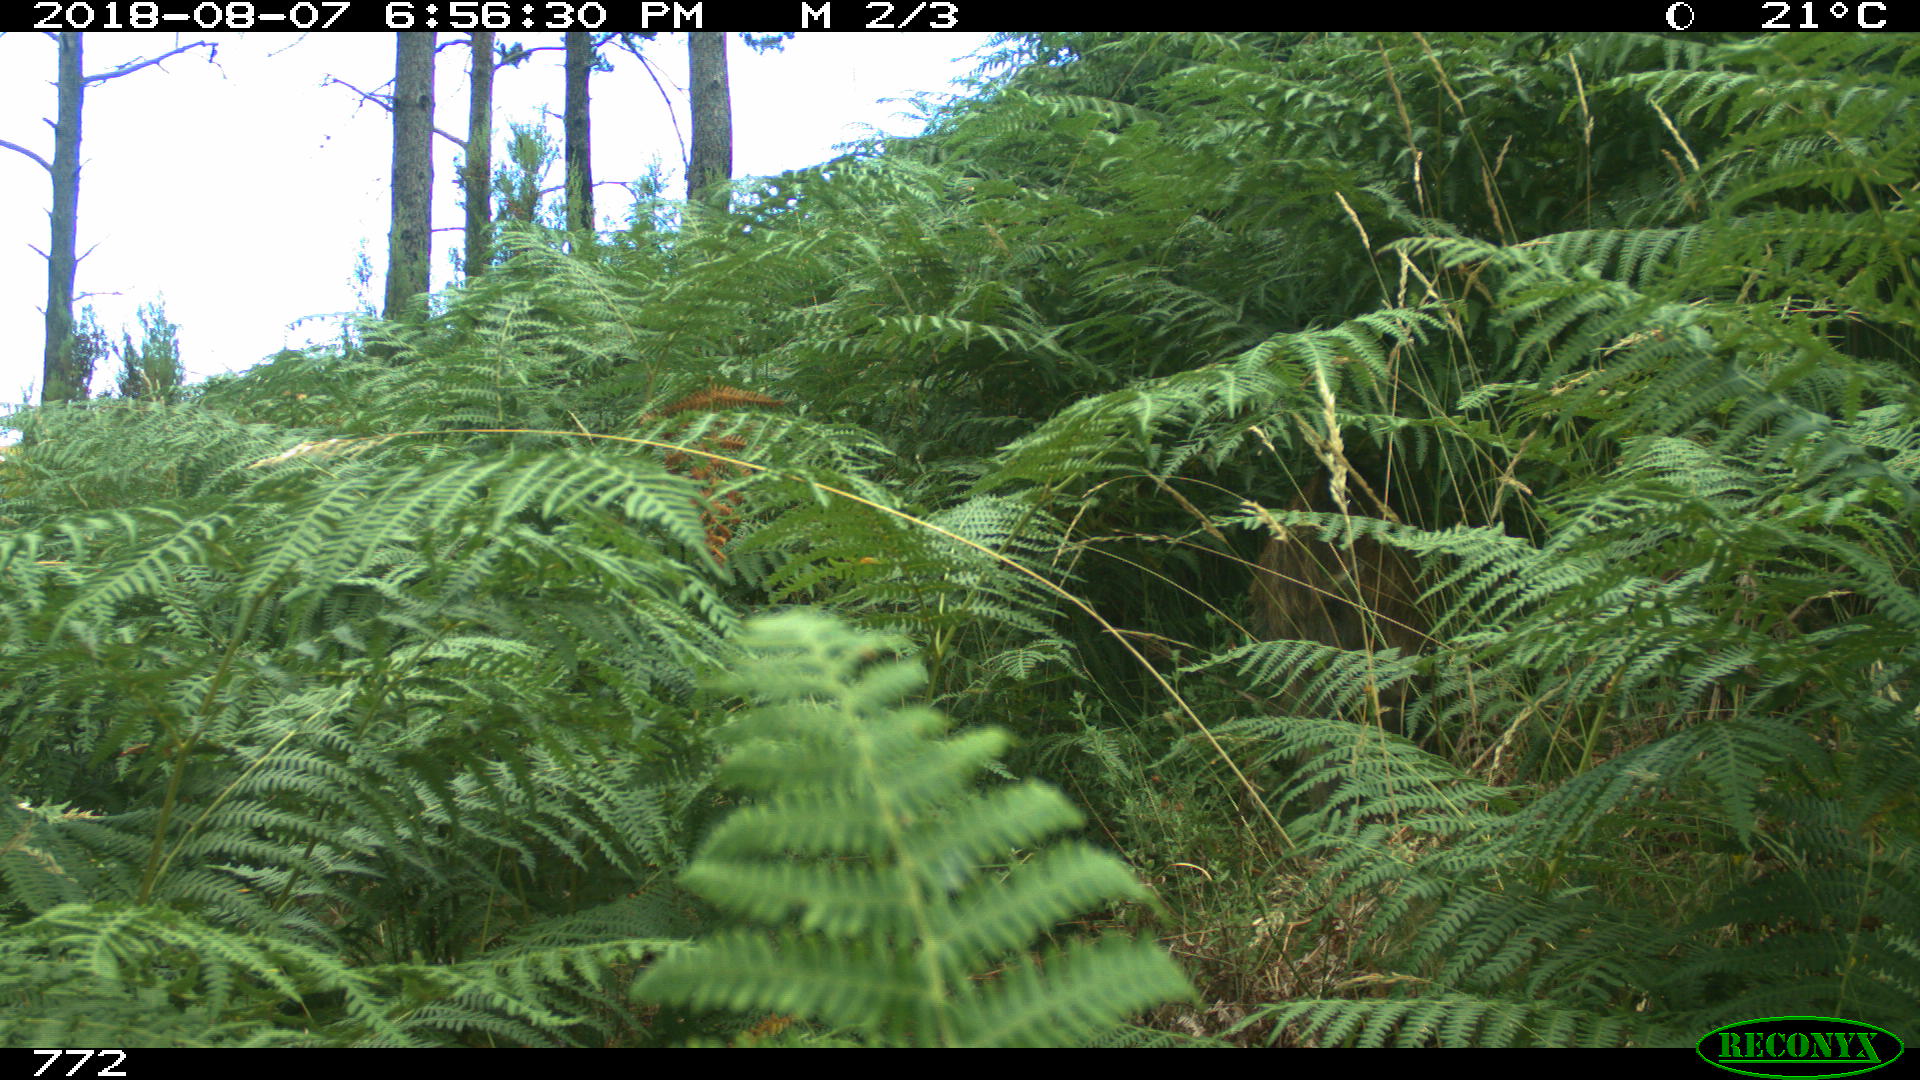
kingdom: Animalia
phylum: Chordata
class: Mammalia
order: Artiodactyla
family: Suidae
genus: Sus
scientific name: Sus scrofa
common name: Wild boar
